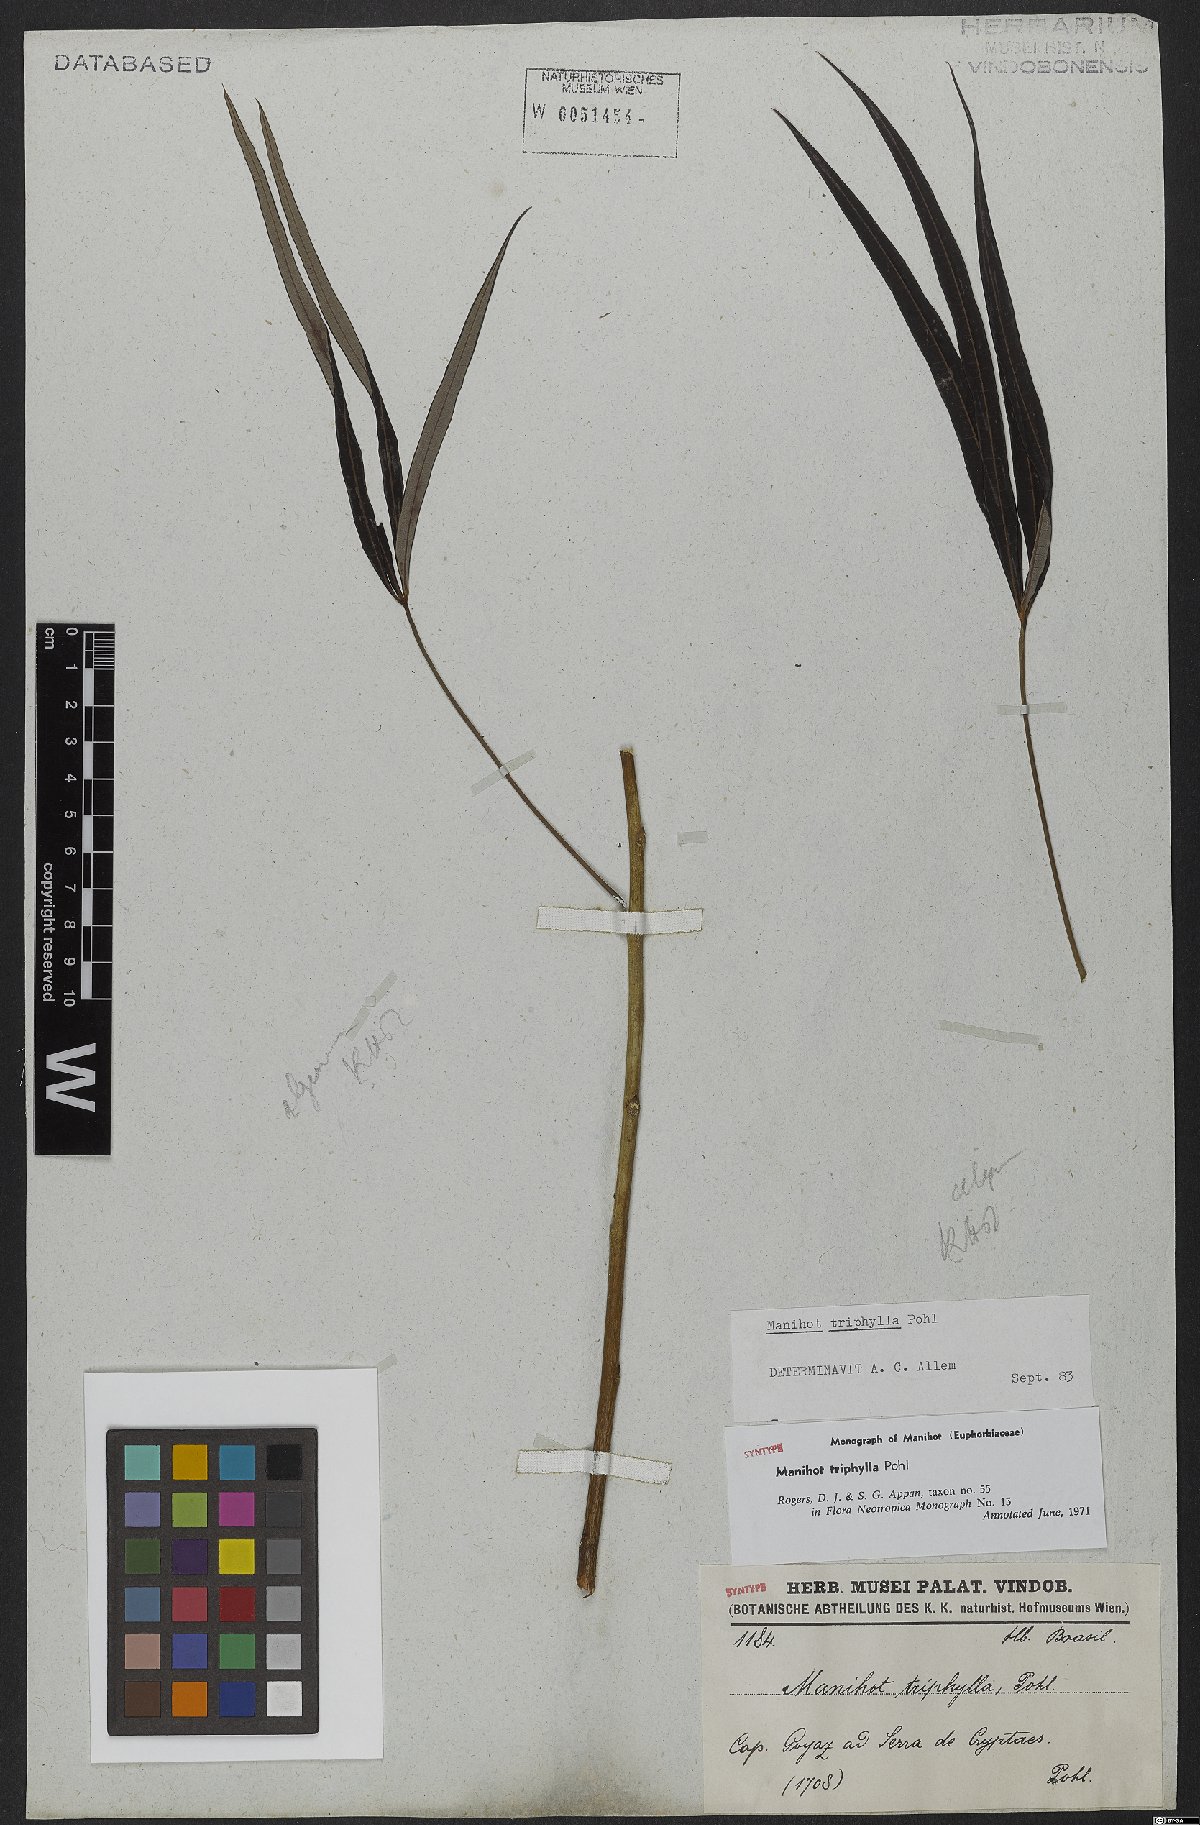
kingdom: Plantae
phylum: Tracheophyta
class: Magnoliopsida
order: Malpighiales
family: Euphorbiaceae
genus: Manihot
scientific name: Manihot triphylla
